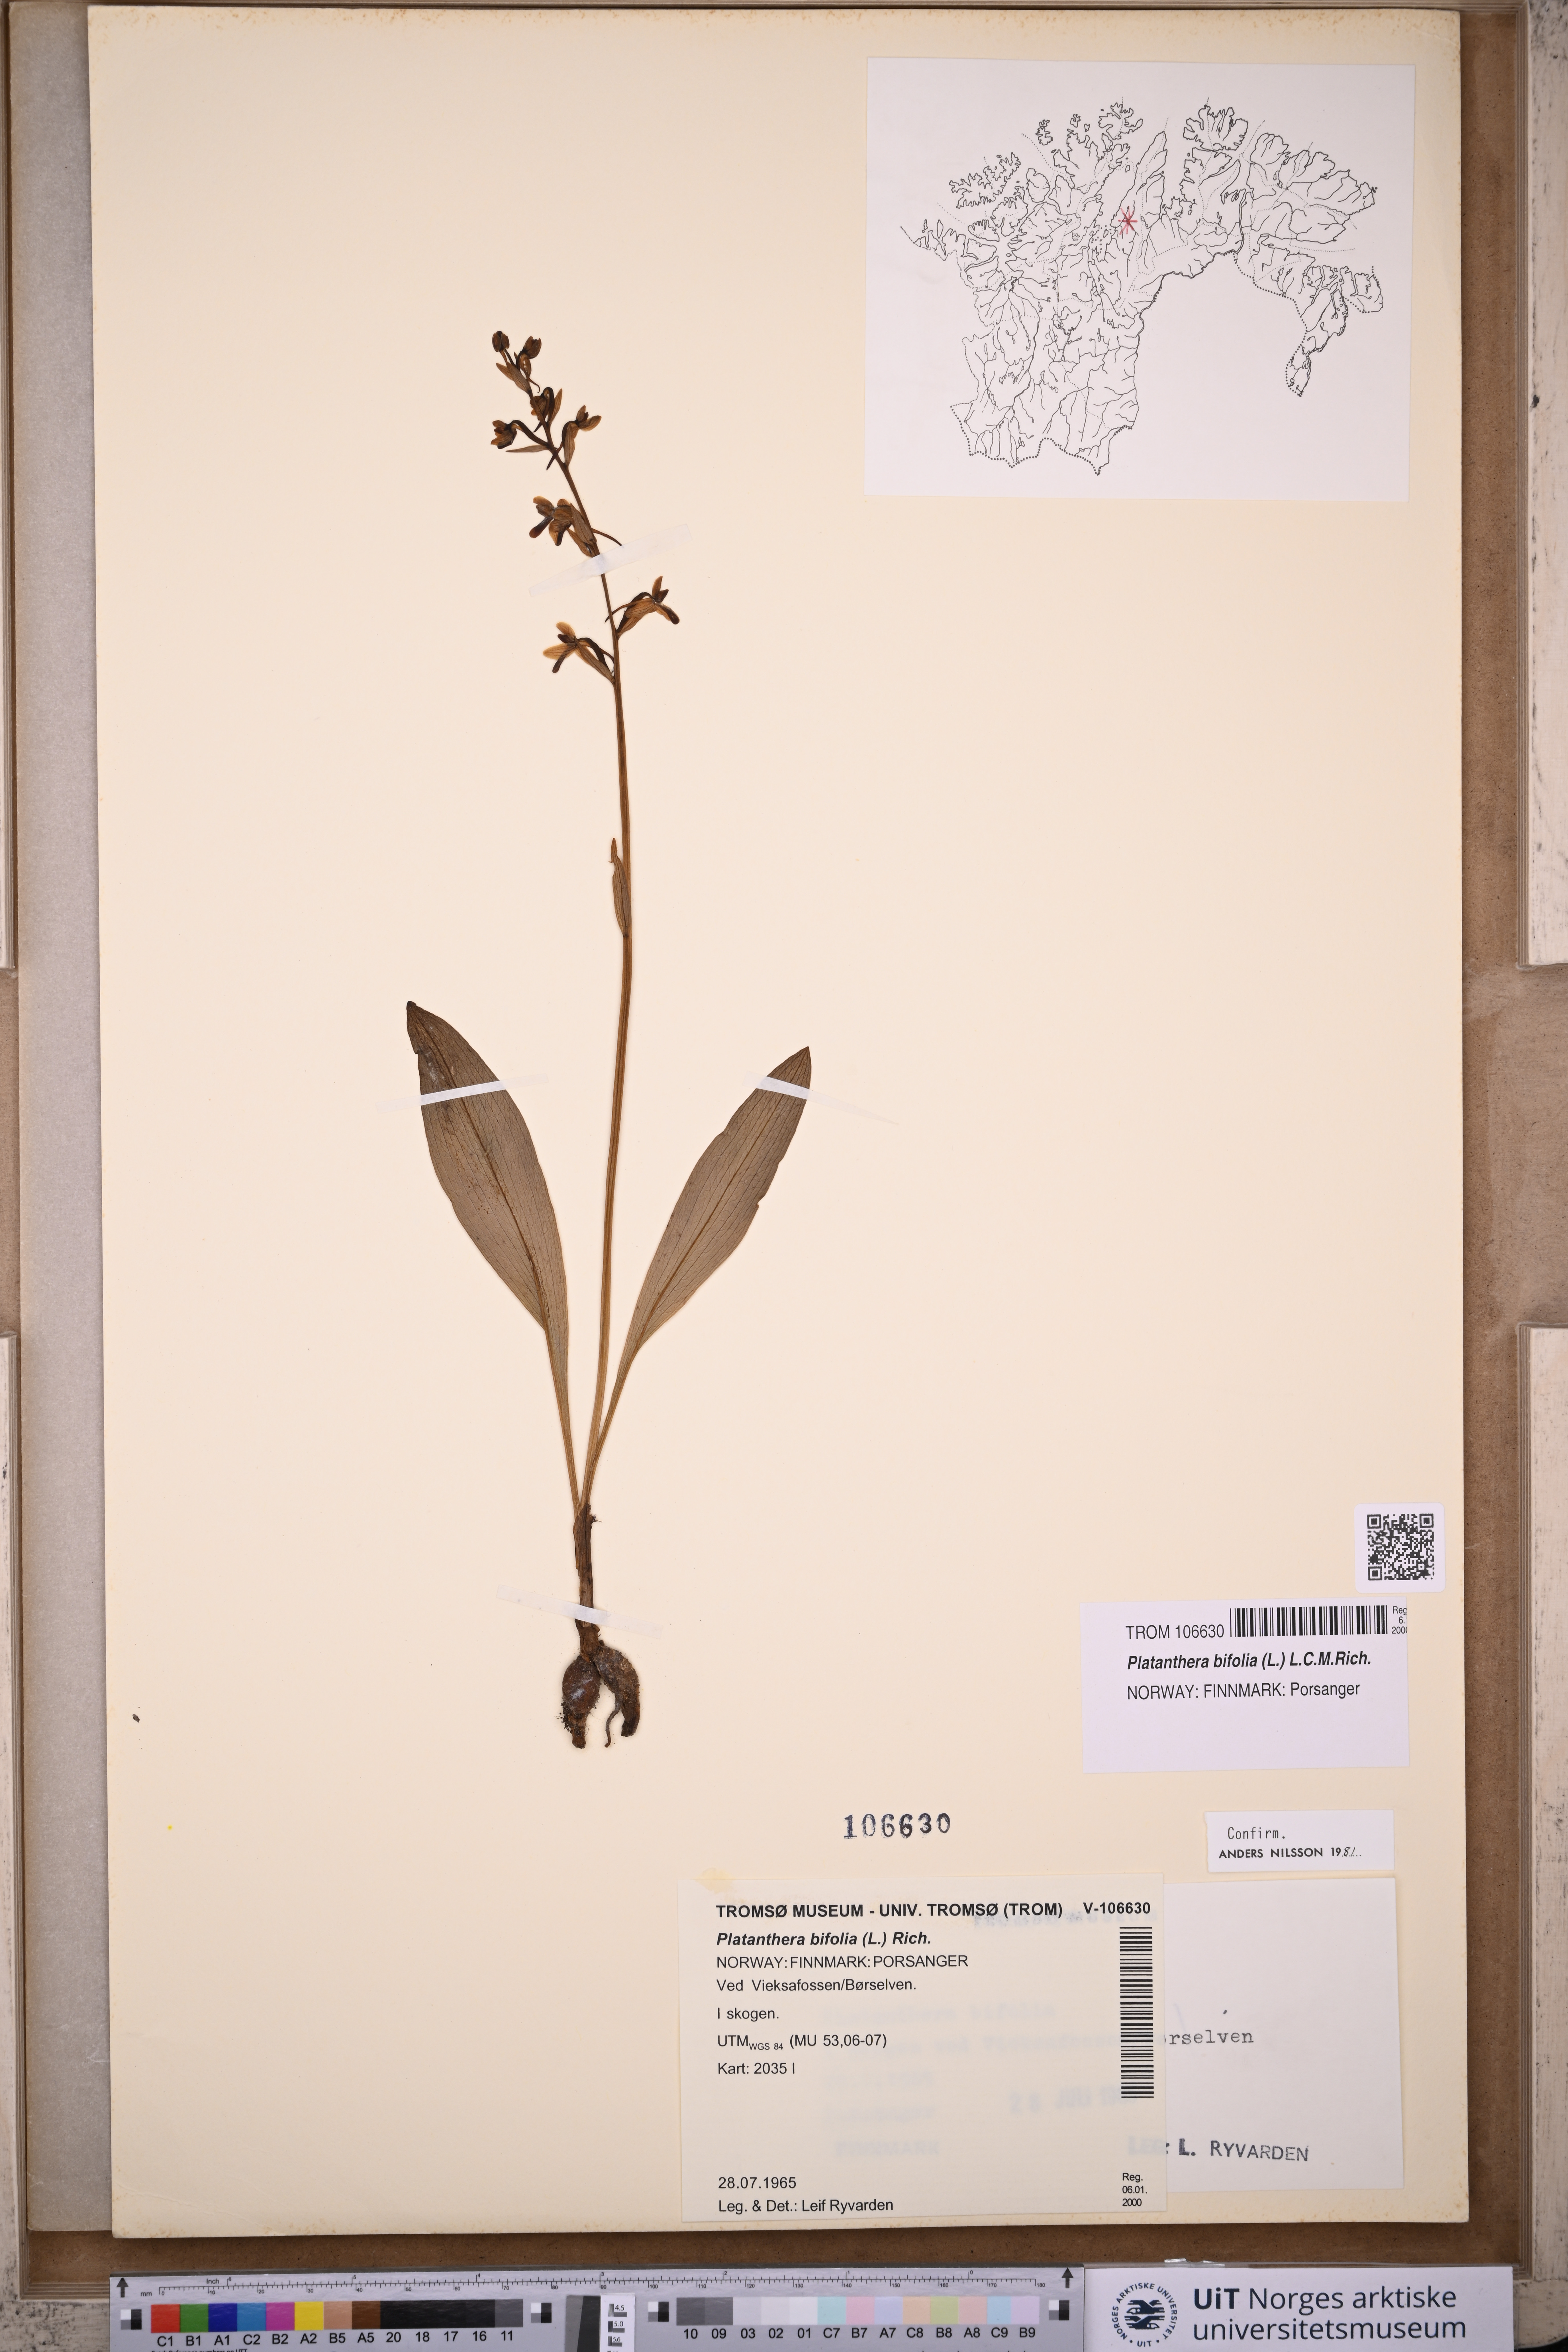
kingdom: Plantae
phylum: Tracheophyta
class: Liliopsida
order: Asparagales
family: Orchidaceae
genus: Platanthera
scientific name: Platanthera bifolia
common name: Lesser butterfly-orchid
